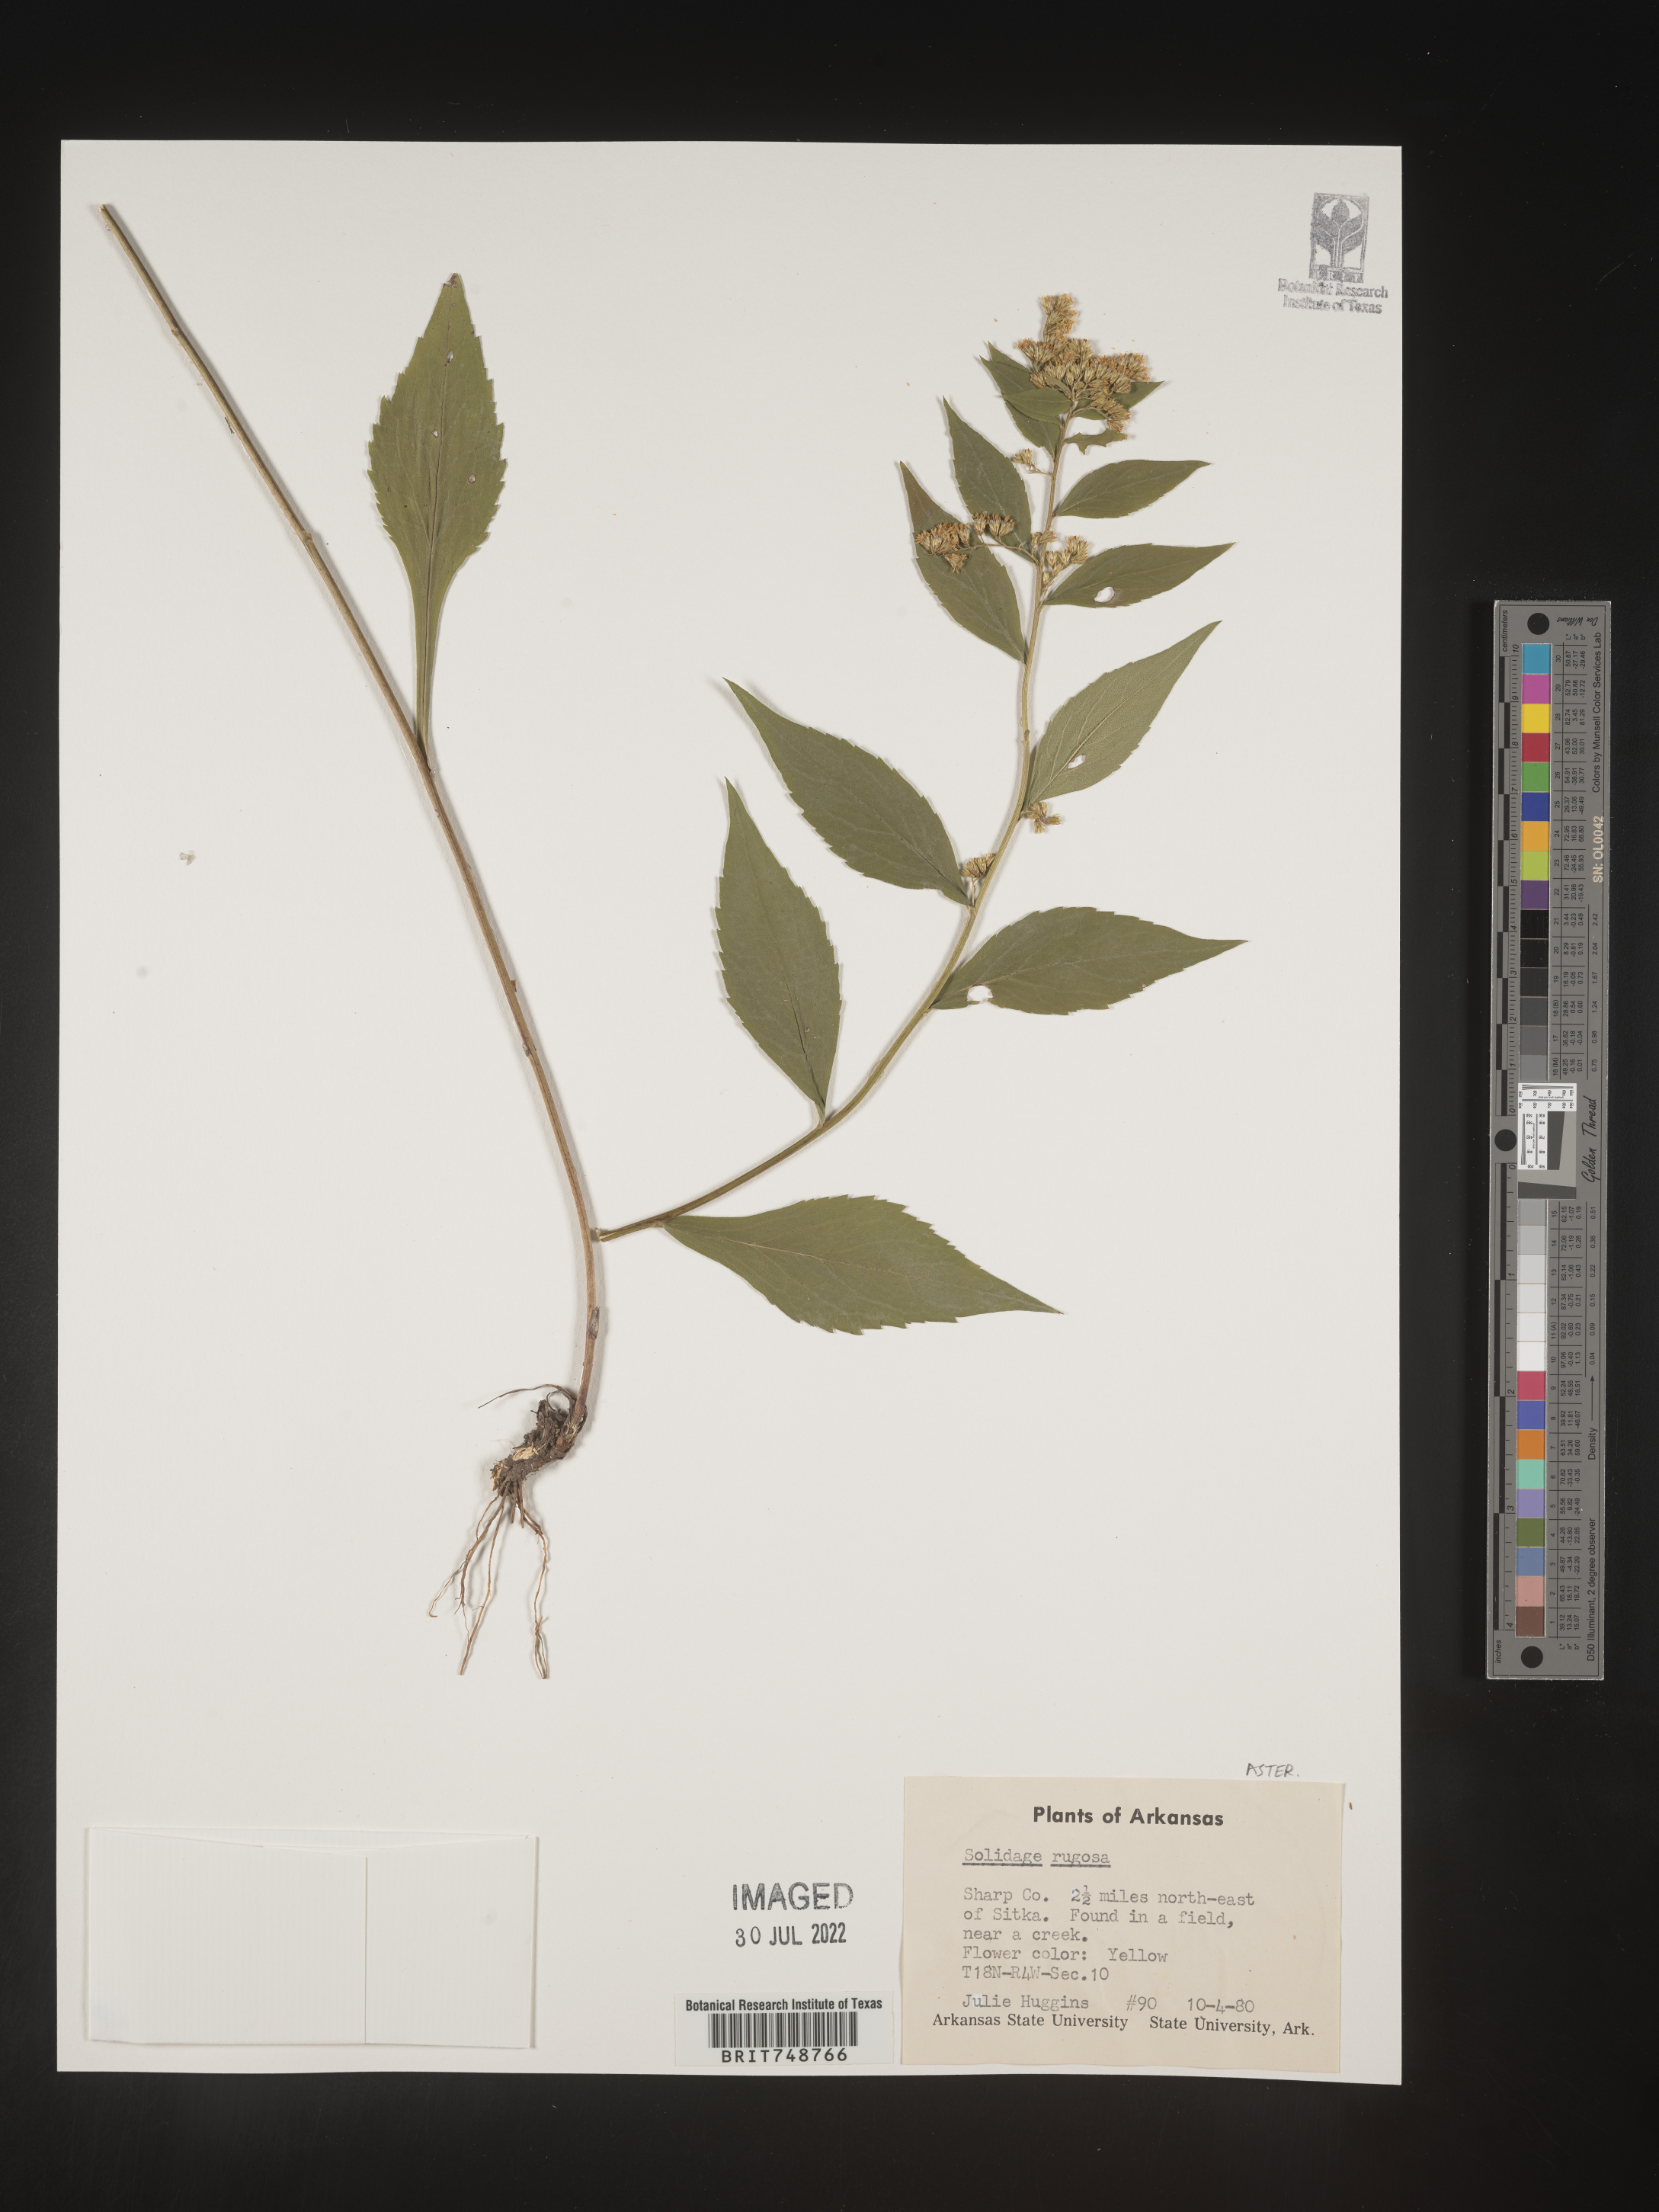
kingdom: Plantae
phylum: Tracheophyta
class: Magnoliopsida
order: Asterales
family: Asteraceae
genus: Solidago
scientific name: Solidago rugosa
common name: Rough-stemmed goldenrod
